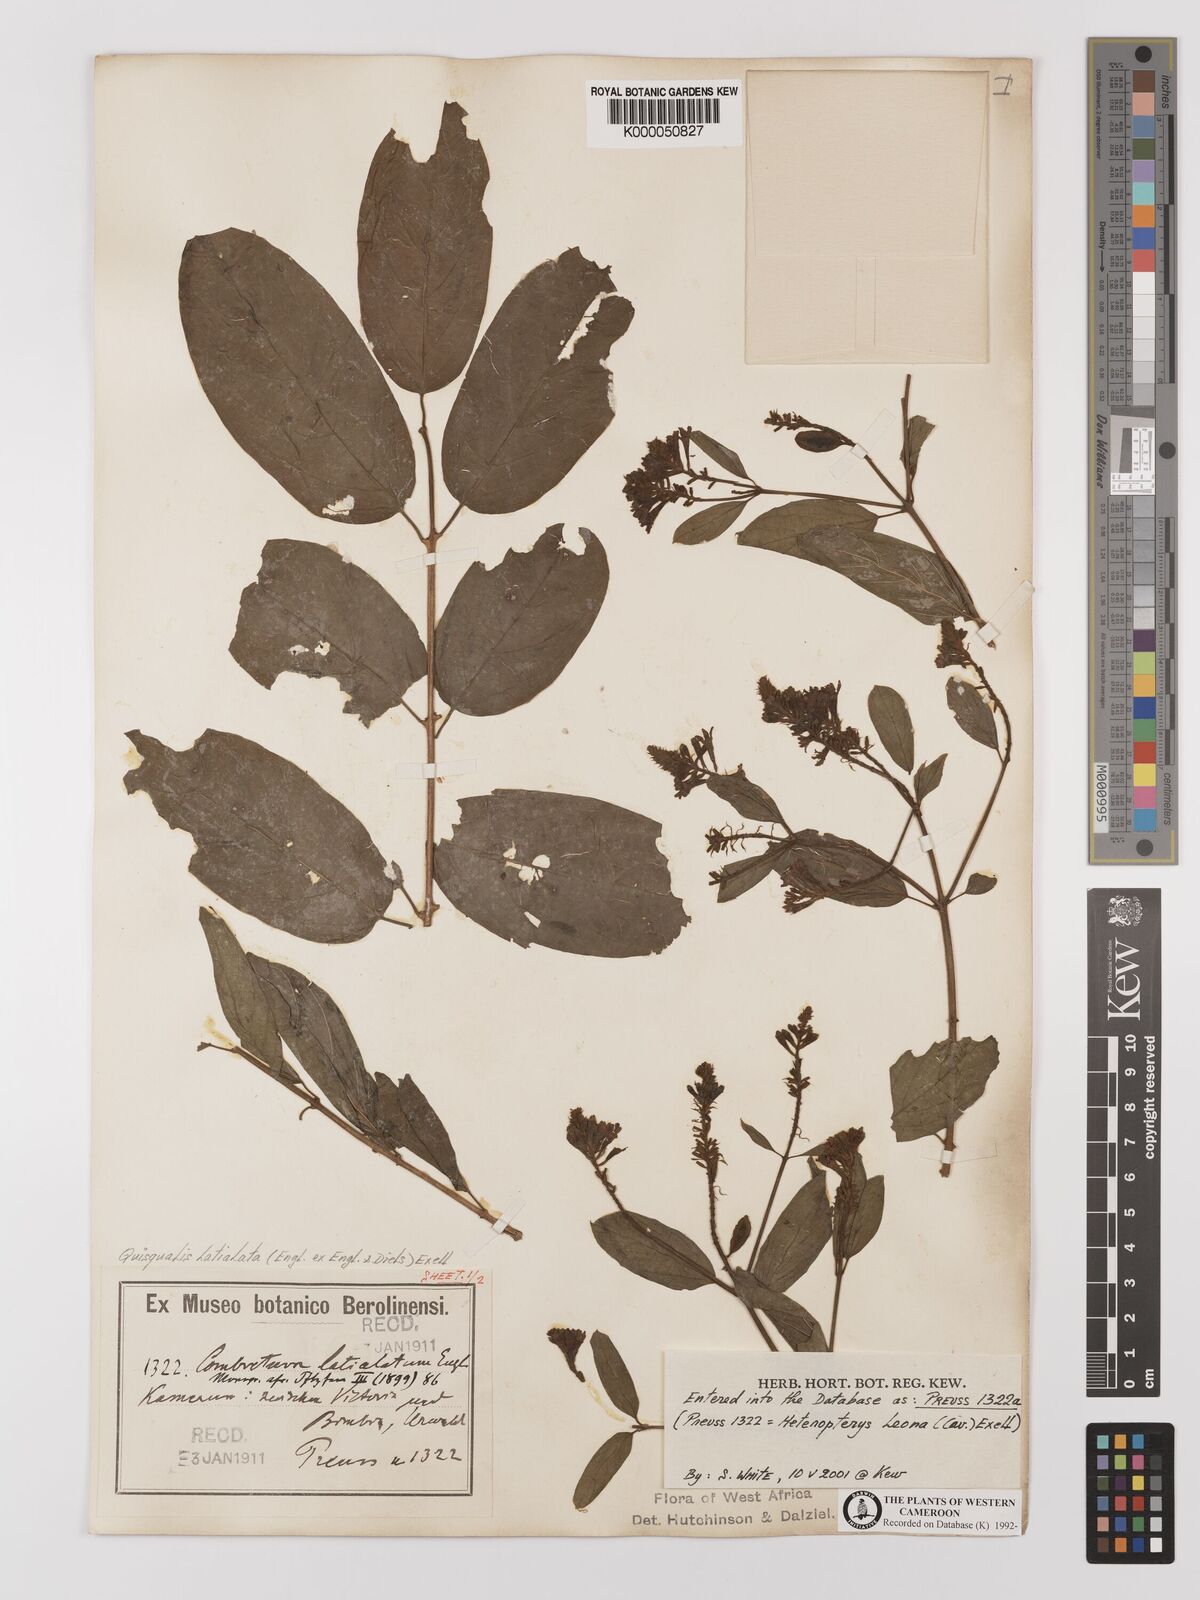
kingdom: Plantae
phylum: Tracheophyta
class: Magnoliopsida
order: Myrtales
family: Combretaceae
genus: Combretum
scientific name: Combretum latialatum
